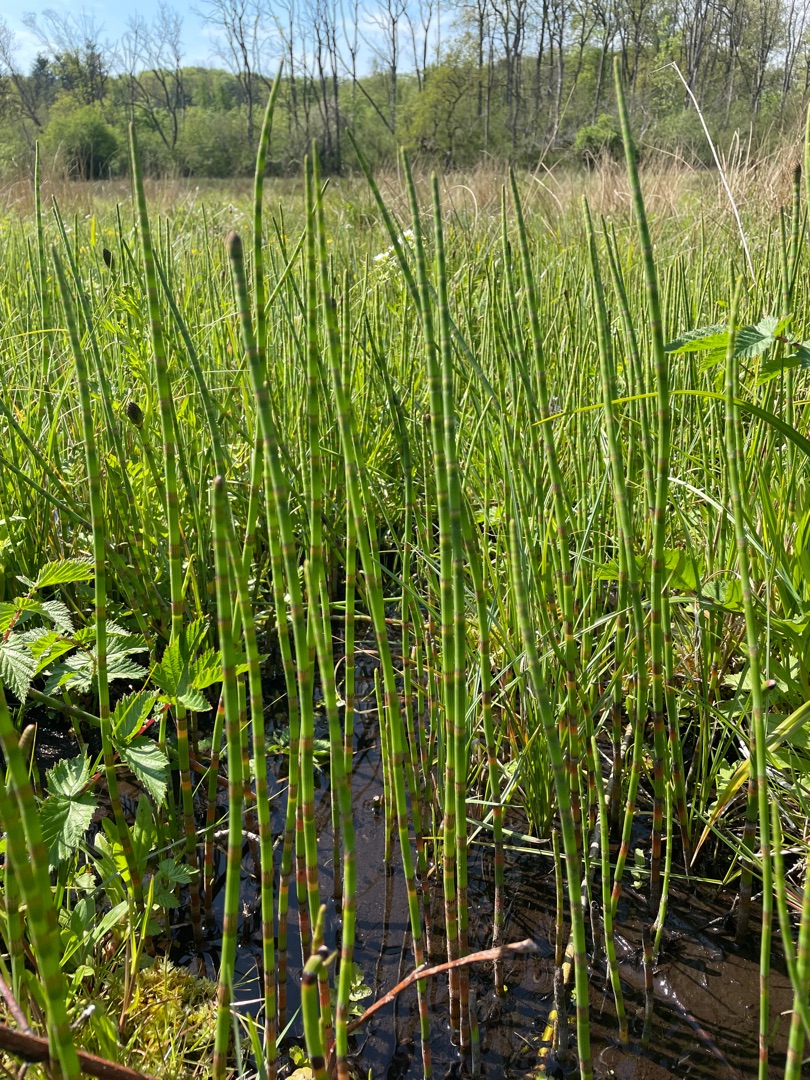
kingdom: Plantae
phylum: Tracheophyta
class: Polypodiopsida
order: Equisetales
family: Equisetaceae
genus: Equisetum
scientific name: Equisetum fluviatile
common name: Dynd-padderok
